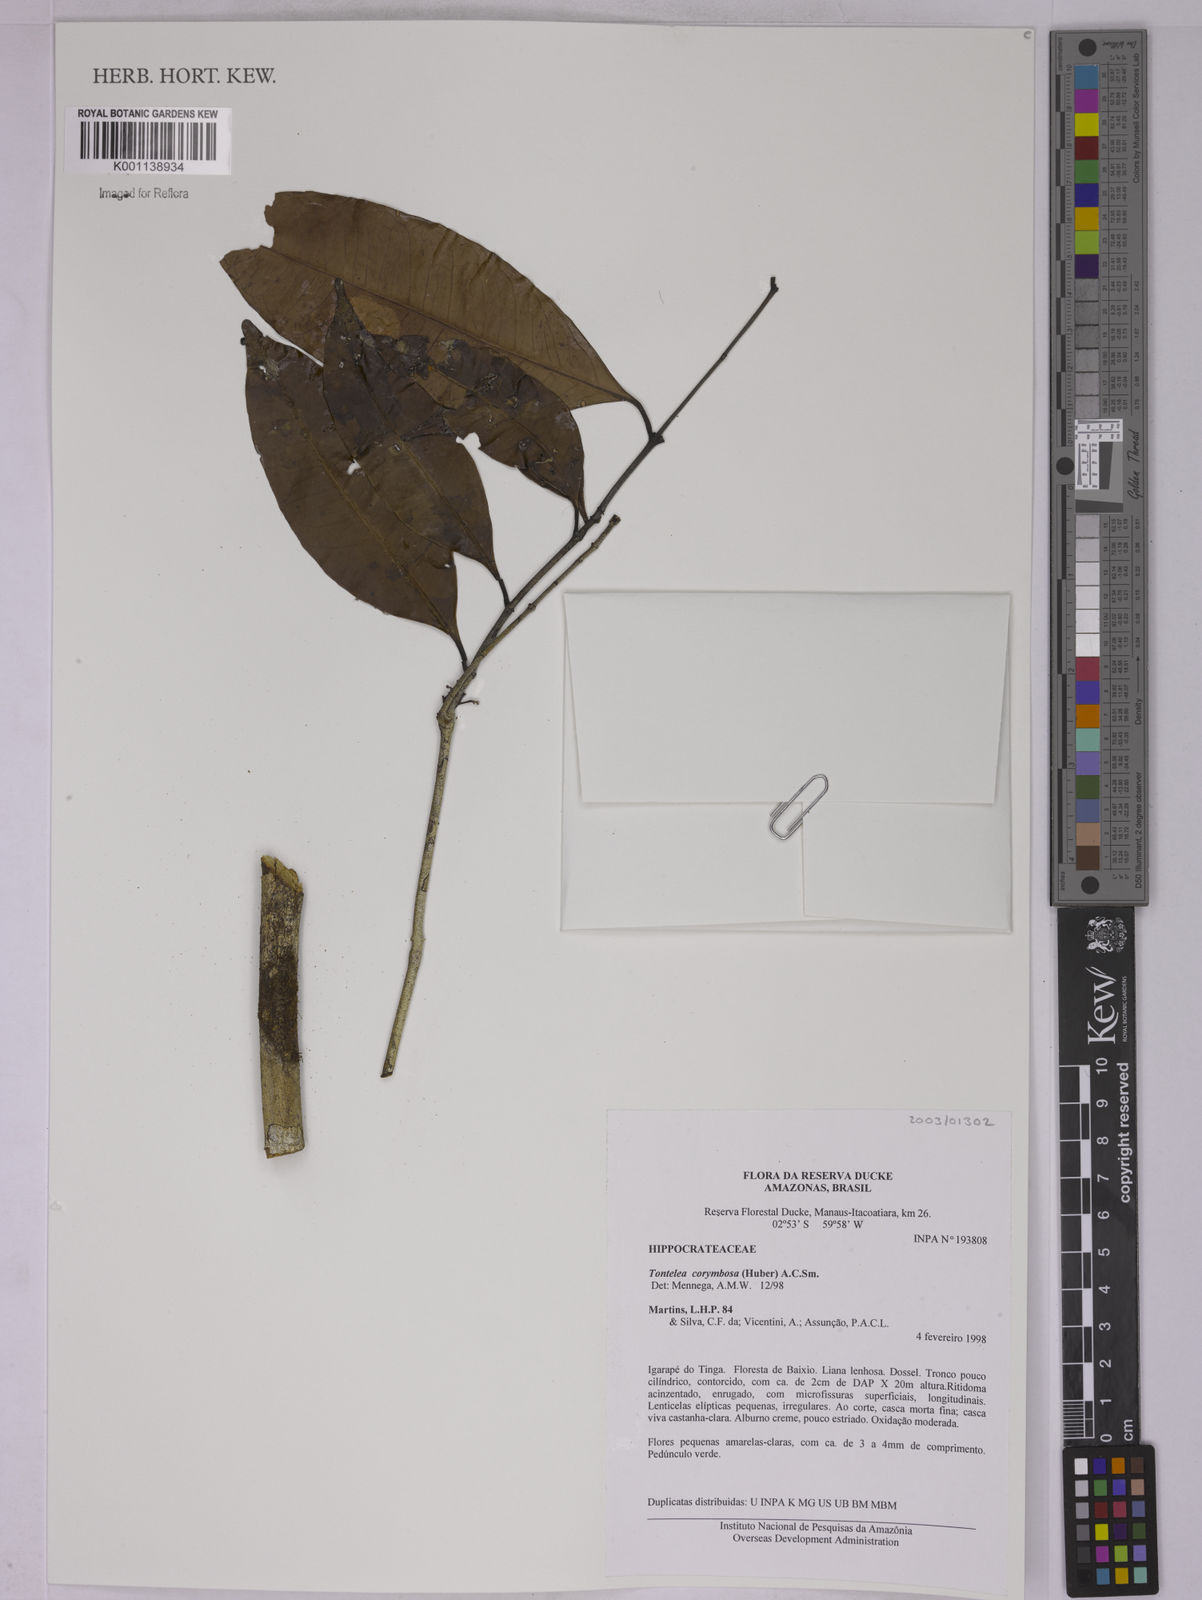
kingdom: Plantae
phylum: Tracheophyta
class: Magnoliopsida
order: Celastrales
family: Celastraceae
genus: Tontelea
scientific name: Tontelea corymbosa
